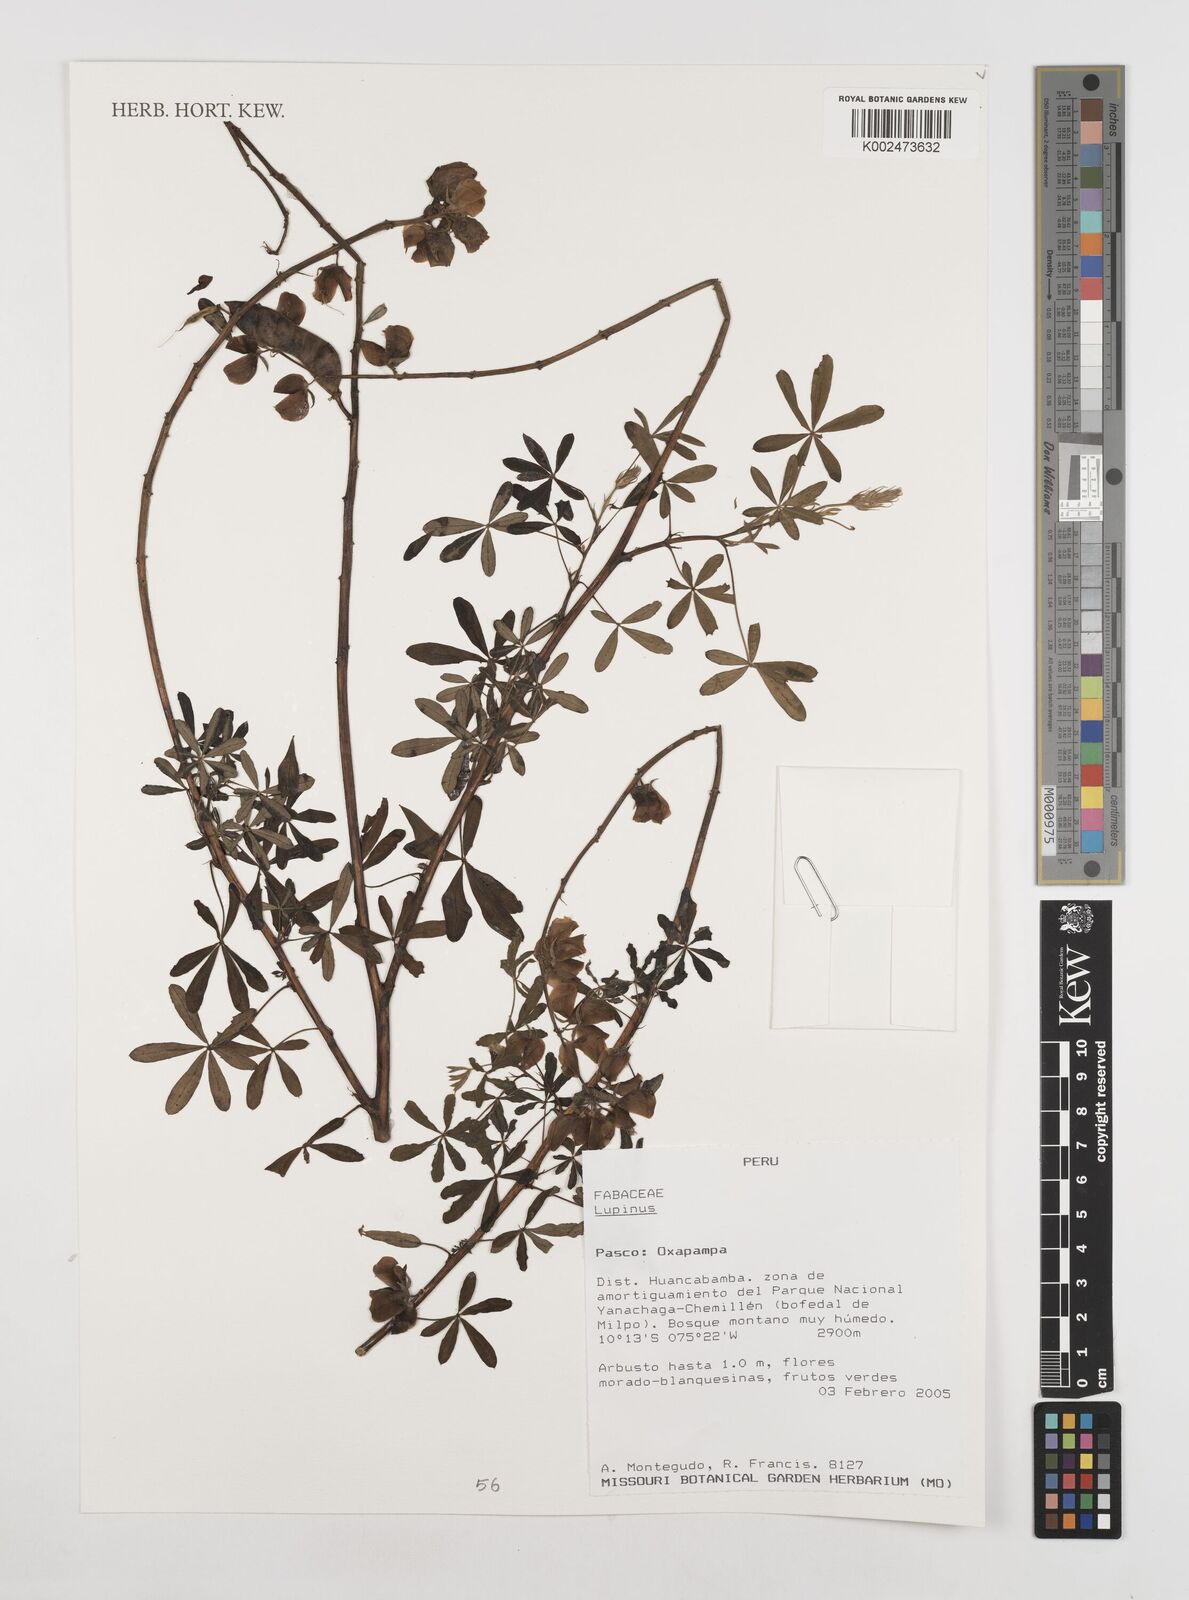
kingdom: Plantae
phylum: Tracheophyta
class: Magnoliopsida
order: Fabales
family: Fabaceae
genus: Lupinus
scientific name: Lupinus
